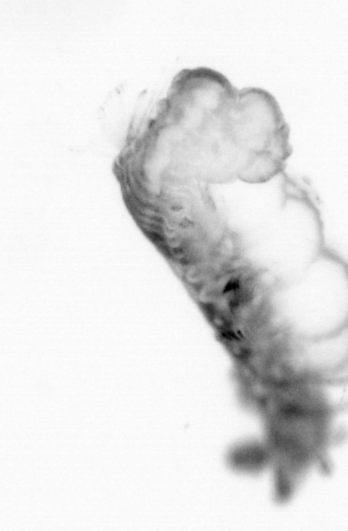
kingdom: Animalia
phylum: Annelida
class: Polychaeta
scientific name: Polychaeta
